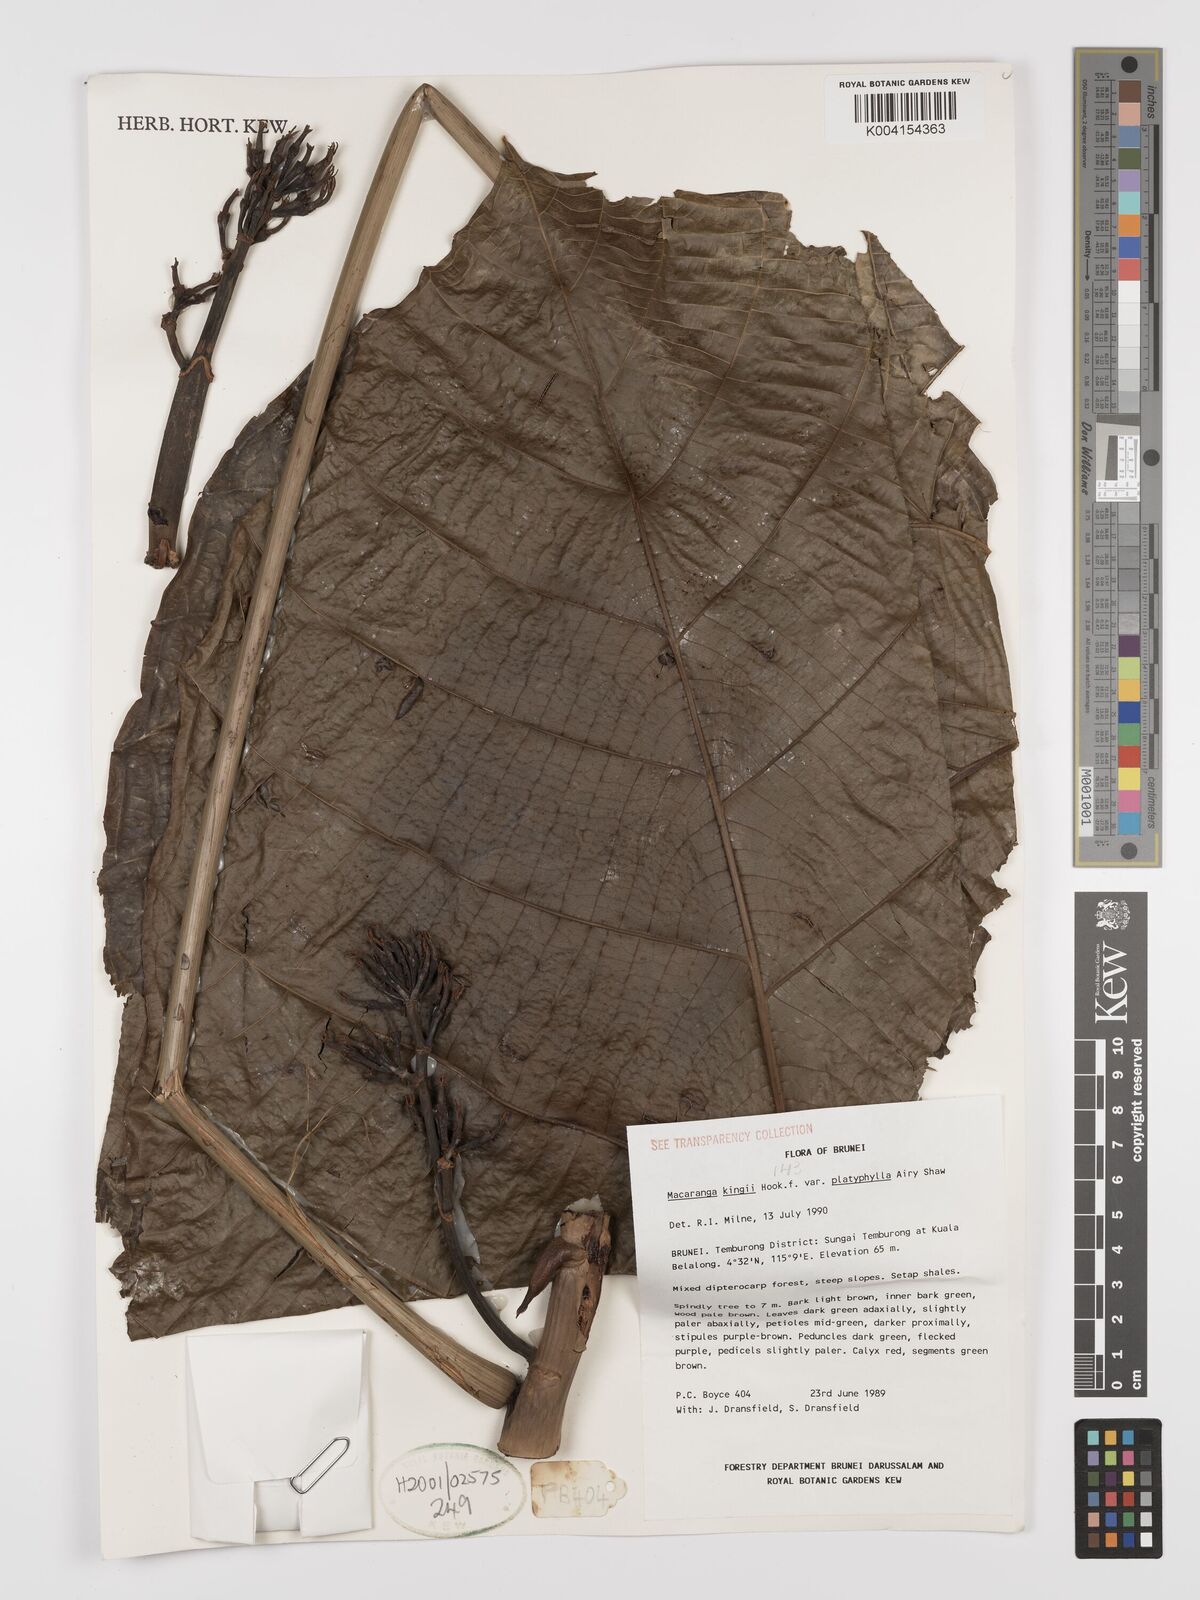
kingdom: Plantae
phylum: Tracheophyta
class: Magnoliopsida
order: Malpighiales
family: Euphorbiaceae
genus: Macaranga
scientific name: Macaranga umbrosa
